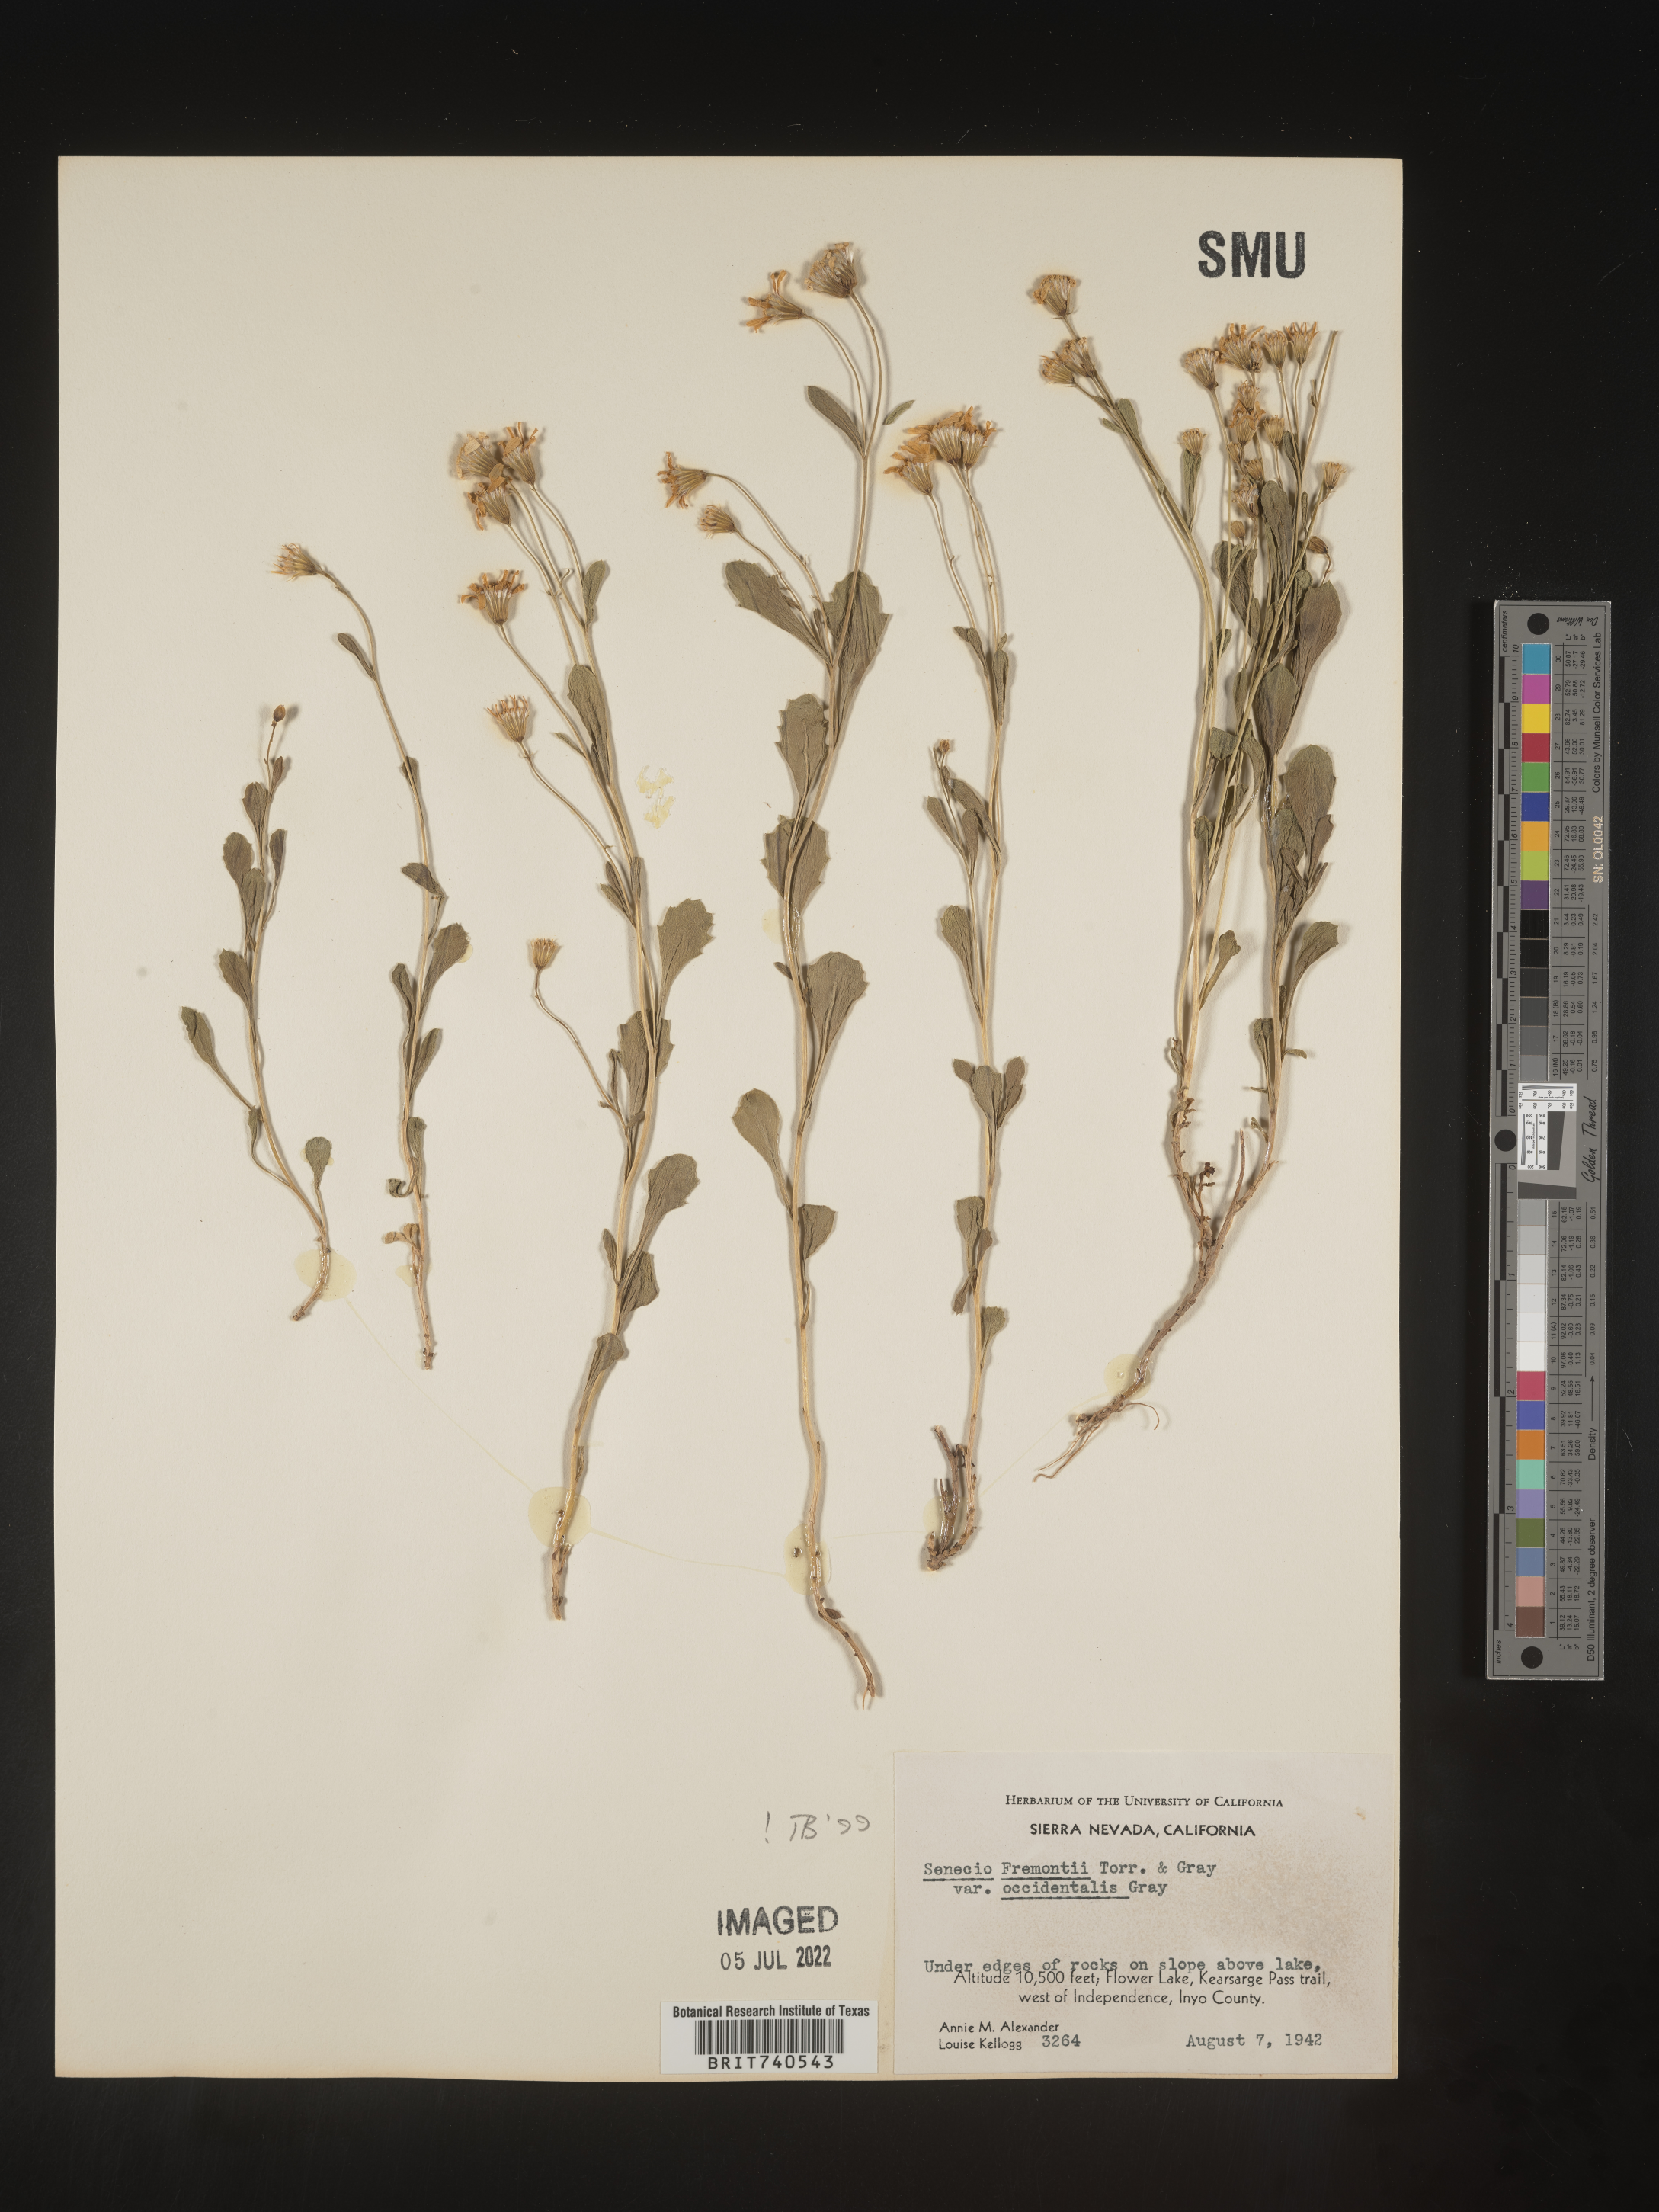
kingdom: Plantae
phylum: Tracheophyta
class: Magnoliopsida
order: Asterales
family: Asteraceae
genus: Senecio
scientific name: Senecio fremontii
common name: Fremont's groundsel
